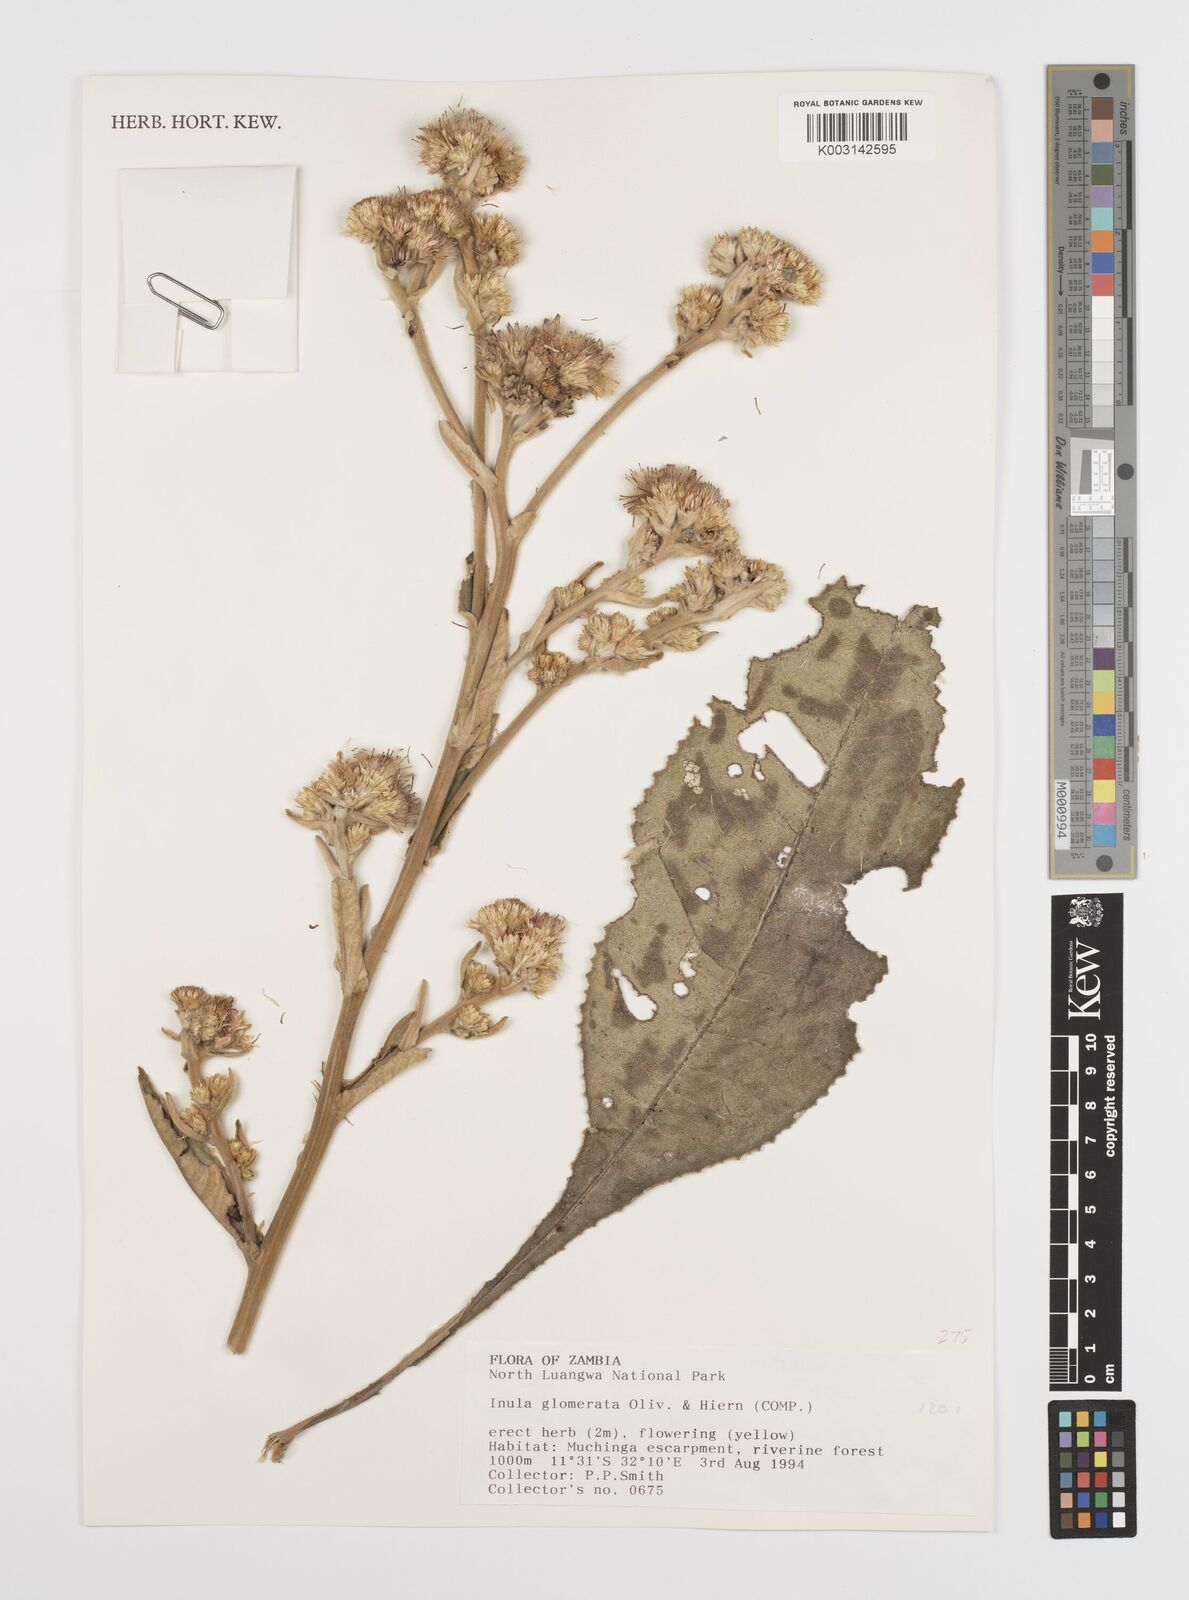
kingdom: Plantae
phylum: Tracheophyta
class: Magnoliopsida
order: Asterales
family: Asteraceae
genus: Inula
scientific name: Inula glomerata
